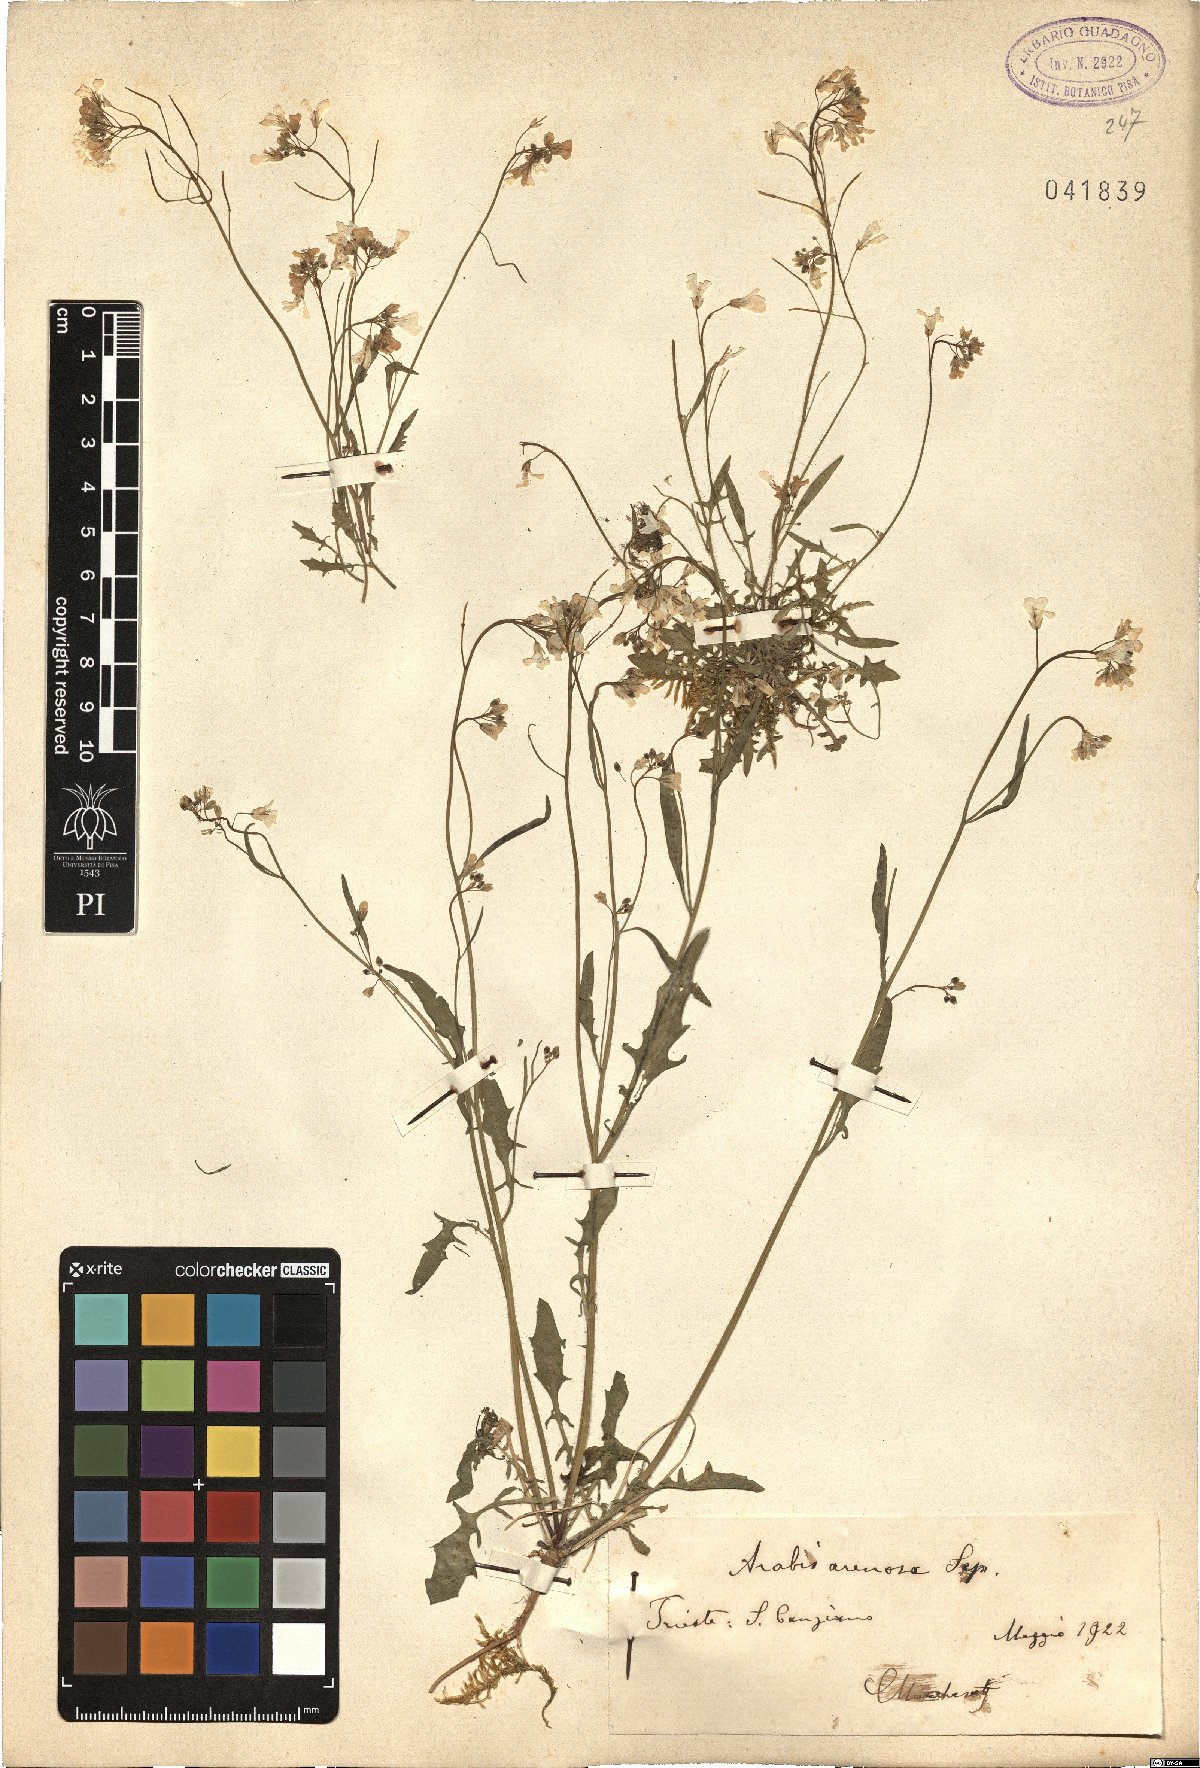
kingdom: Plantae
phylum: Tracheophyta
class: Magnoliopsida
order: Brassicales
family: Brassicaceae
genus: Arabidopsis
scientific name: Arabidopsis arenosa
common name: Sand rock-cress
